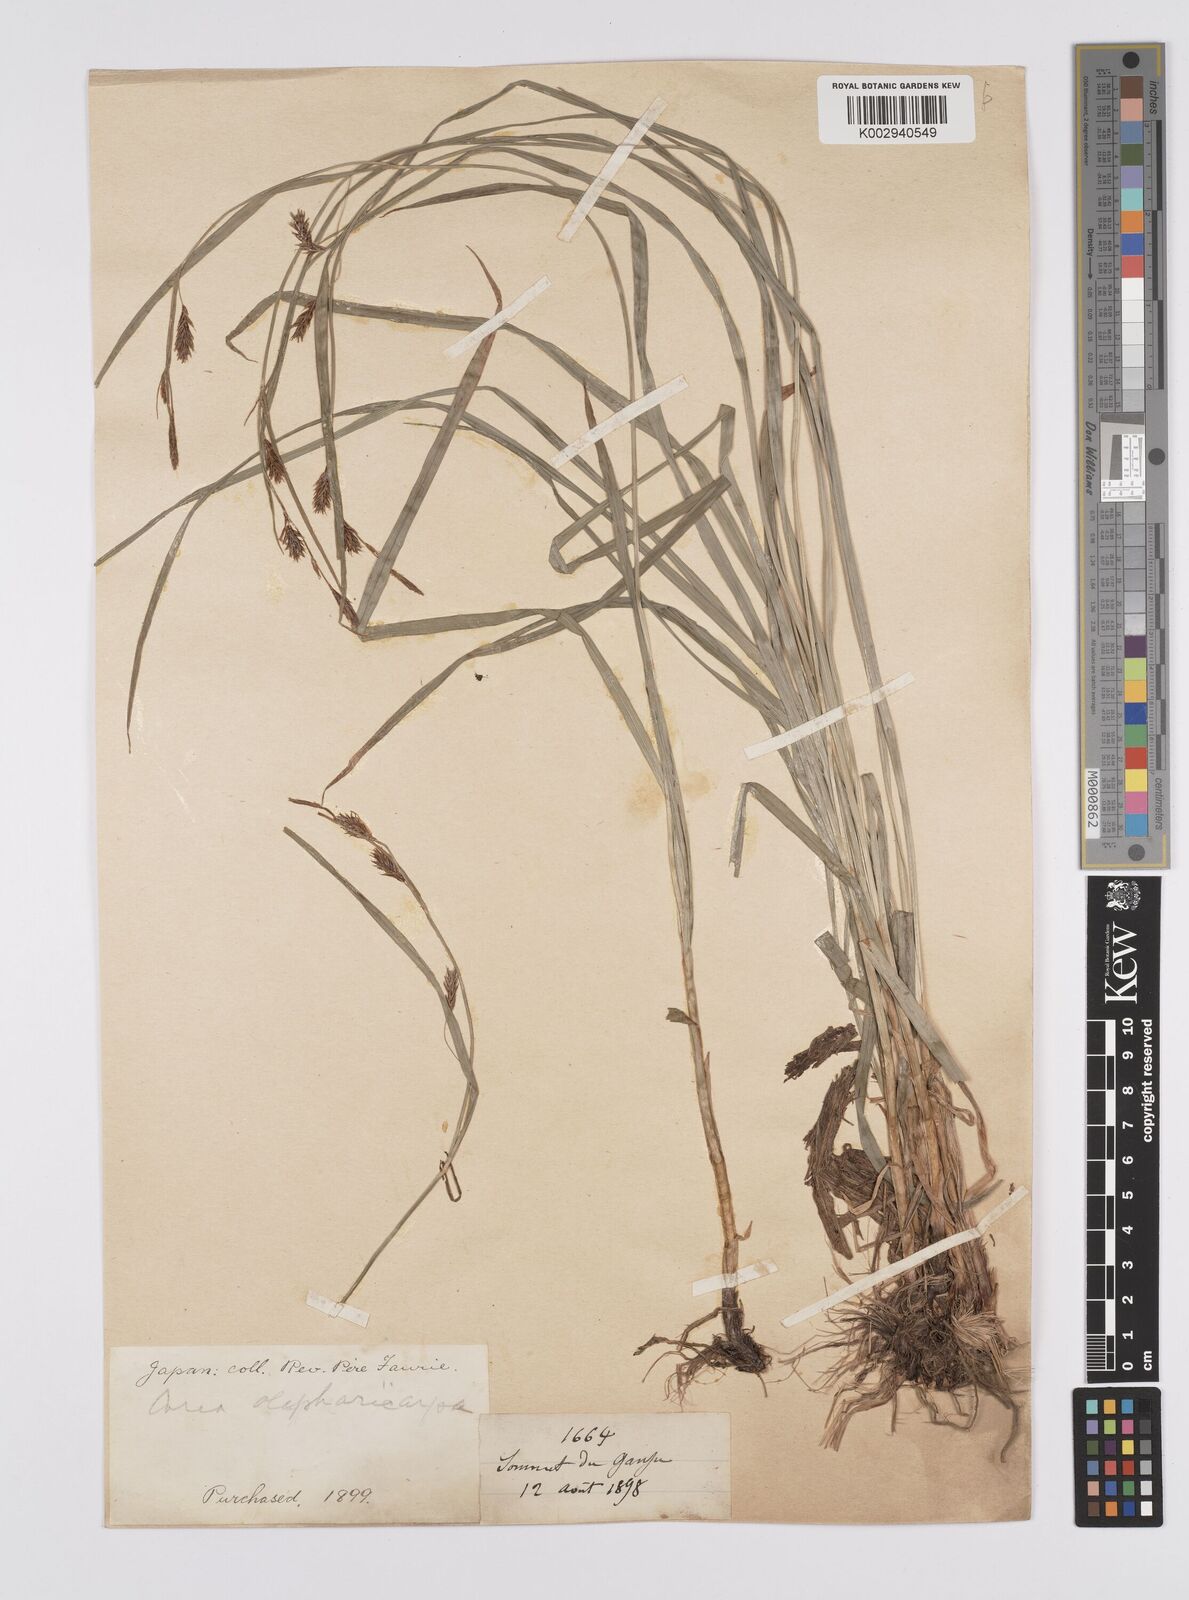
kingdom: Plantae
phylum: Tracheophyta
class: Liliopsida
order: Poales
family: Cyperaceae
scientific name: Cyperaceae
